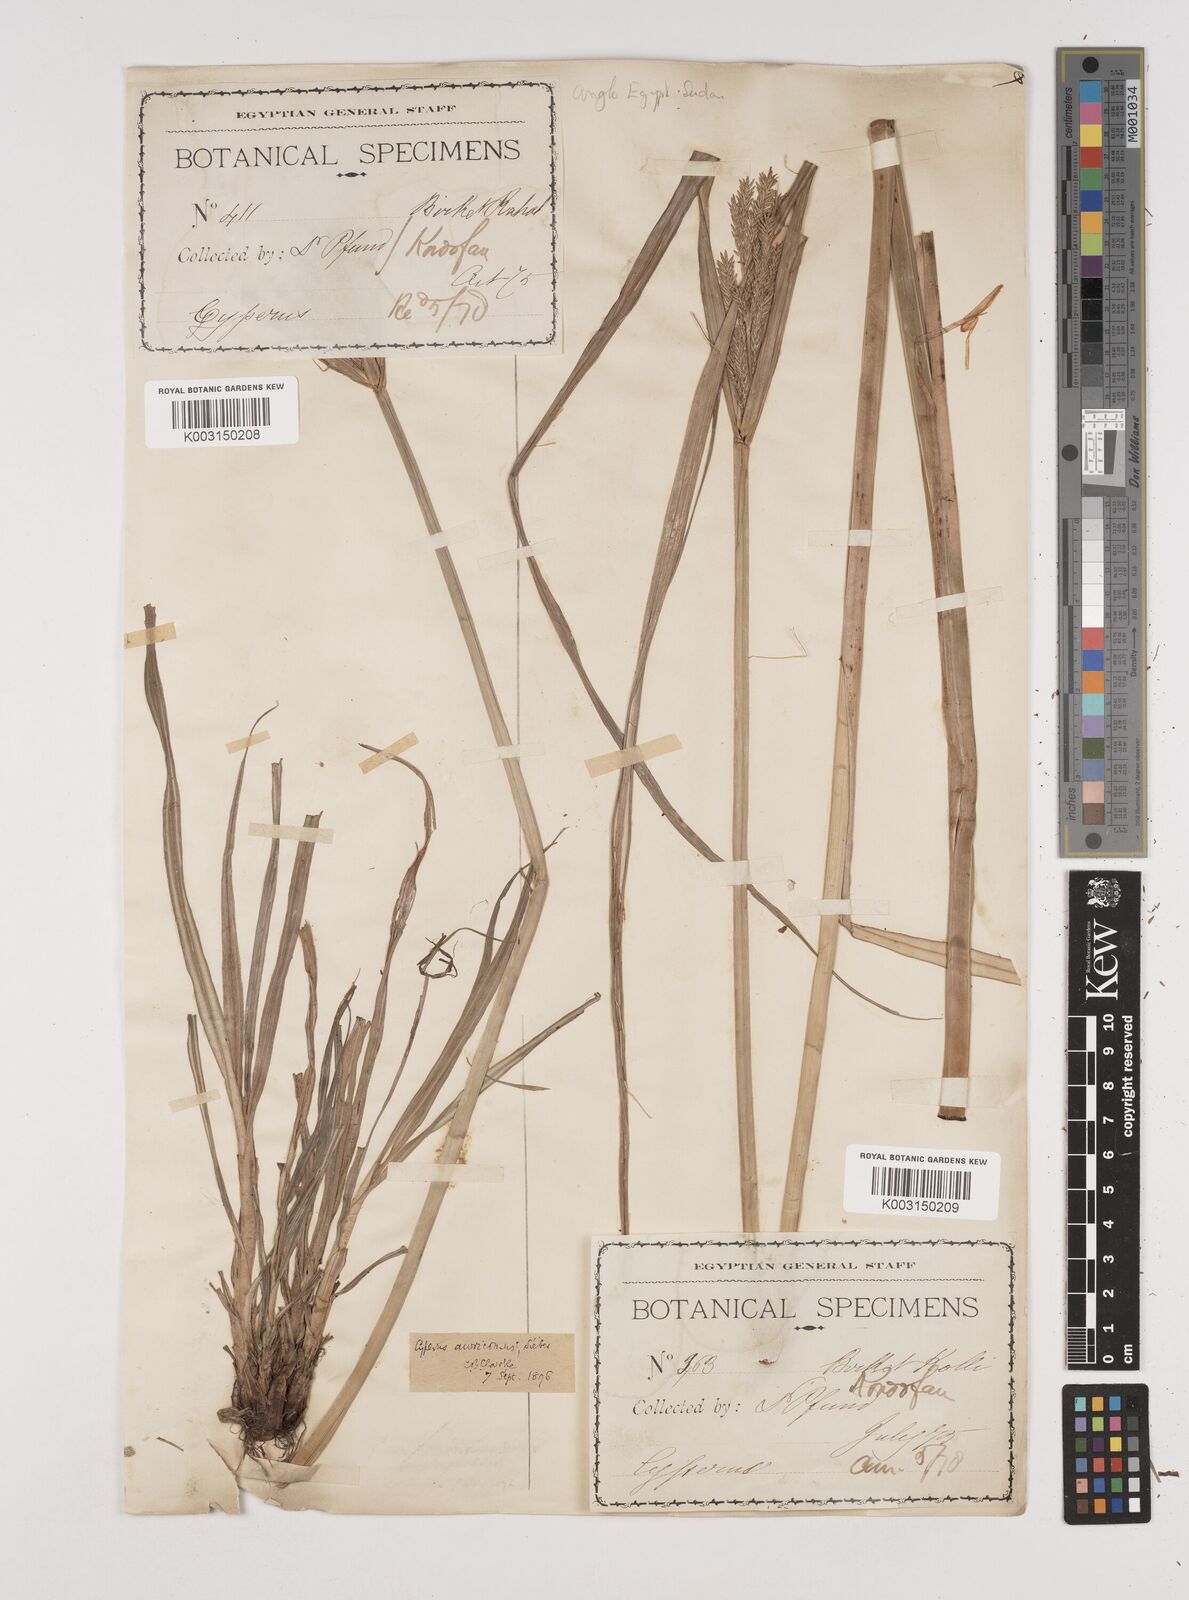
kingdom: Plantae
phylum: Tracheophyta
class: Liliopsida
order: Poales
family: Cyperaceae
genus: Cyperus
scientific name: Cyperus digitatus
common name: Finger flatsedge
